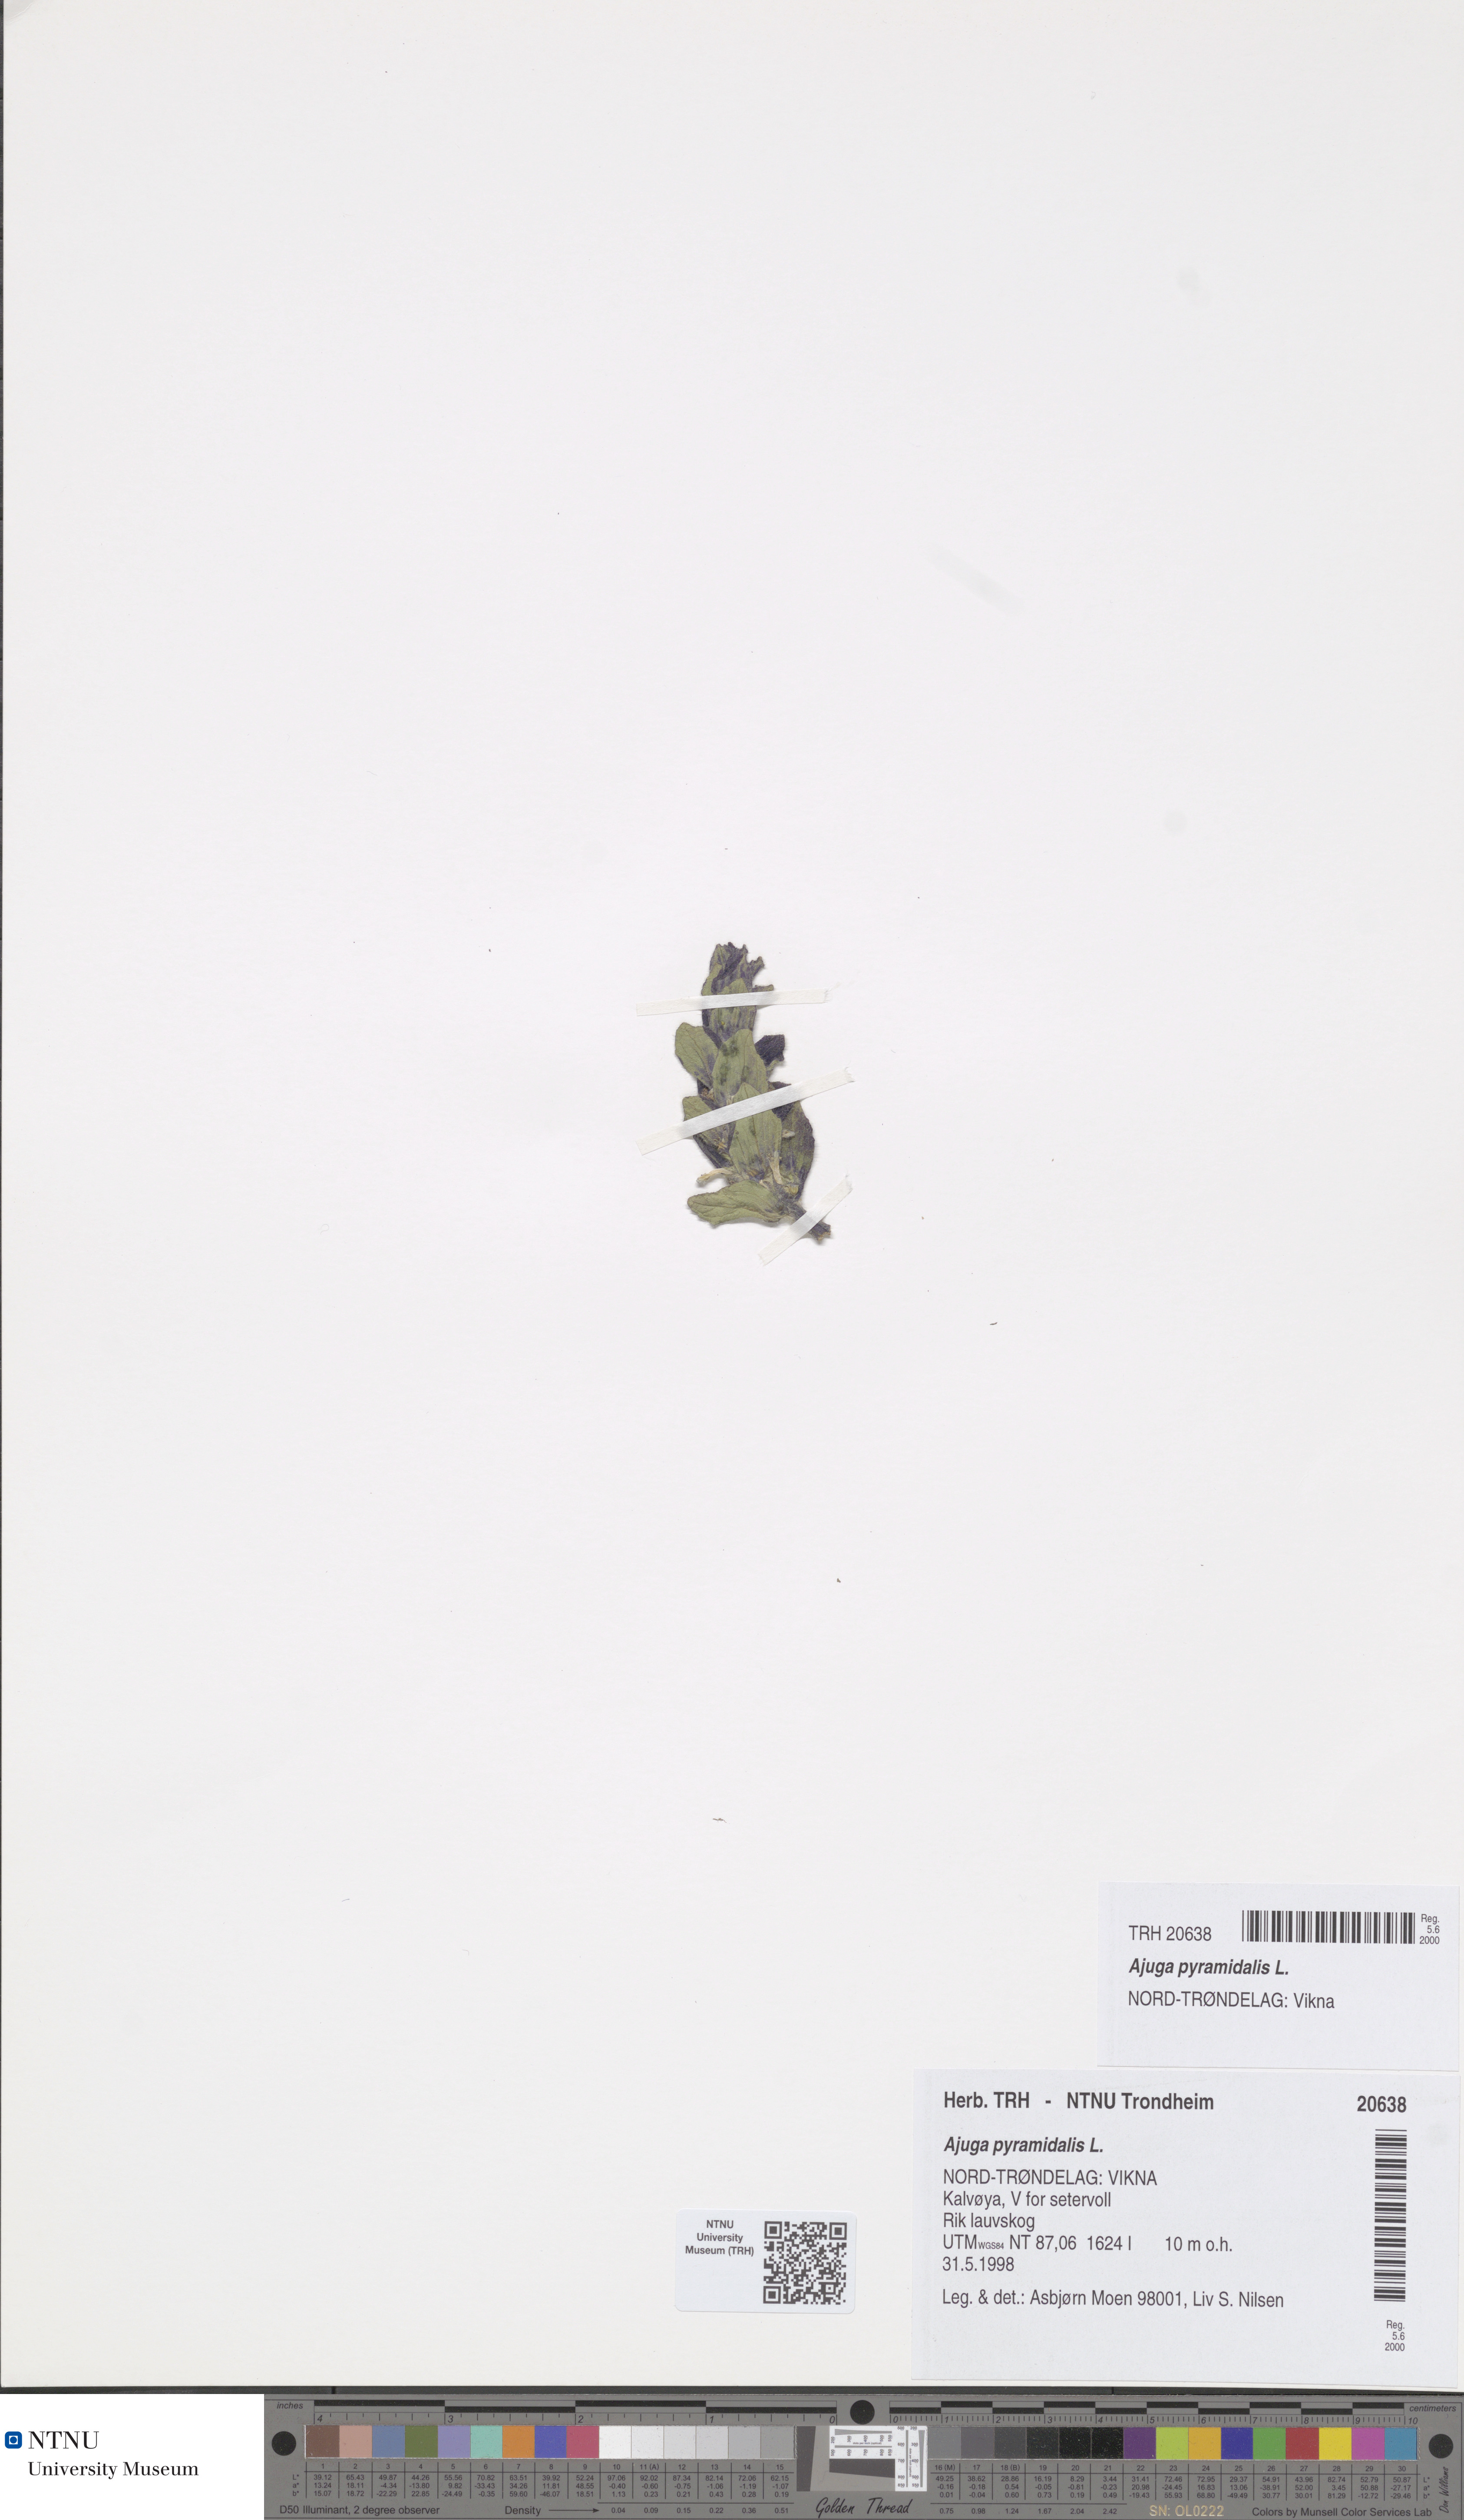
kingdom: Plantae
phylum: Tracheophyta
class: Magnoliopsida
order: Lamiales
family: Lamiaceae
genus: Ajuga
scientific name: Ajuga pyramidalis
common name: Pyramid bugle
